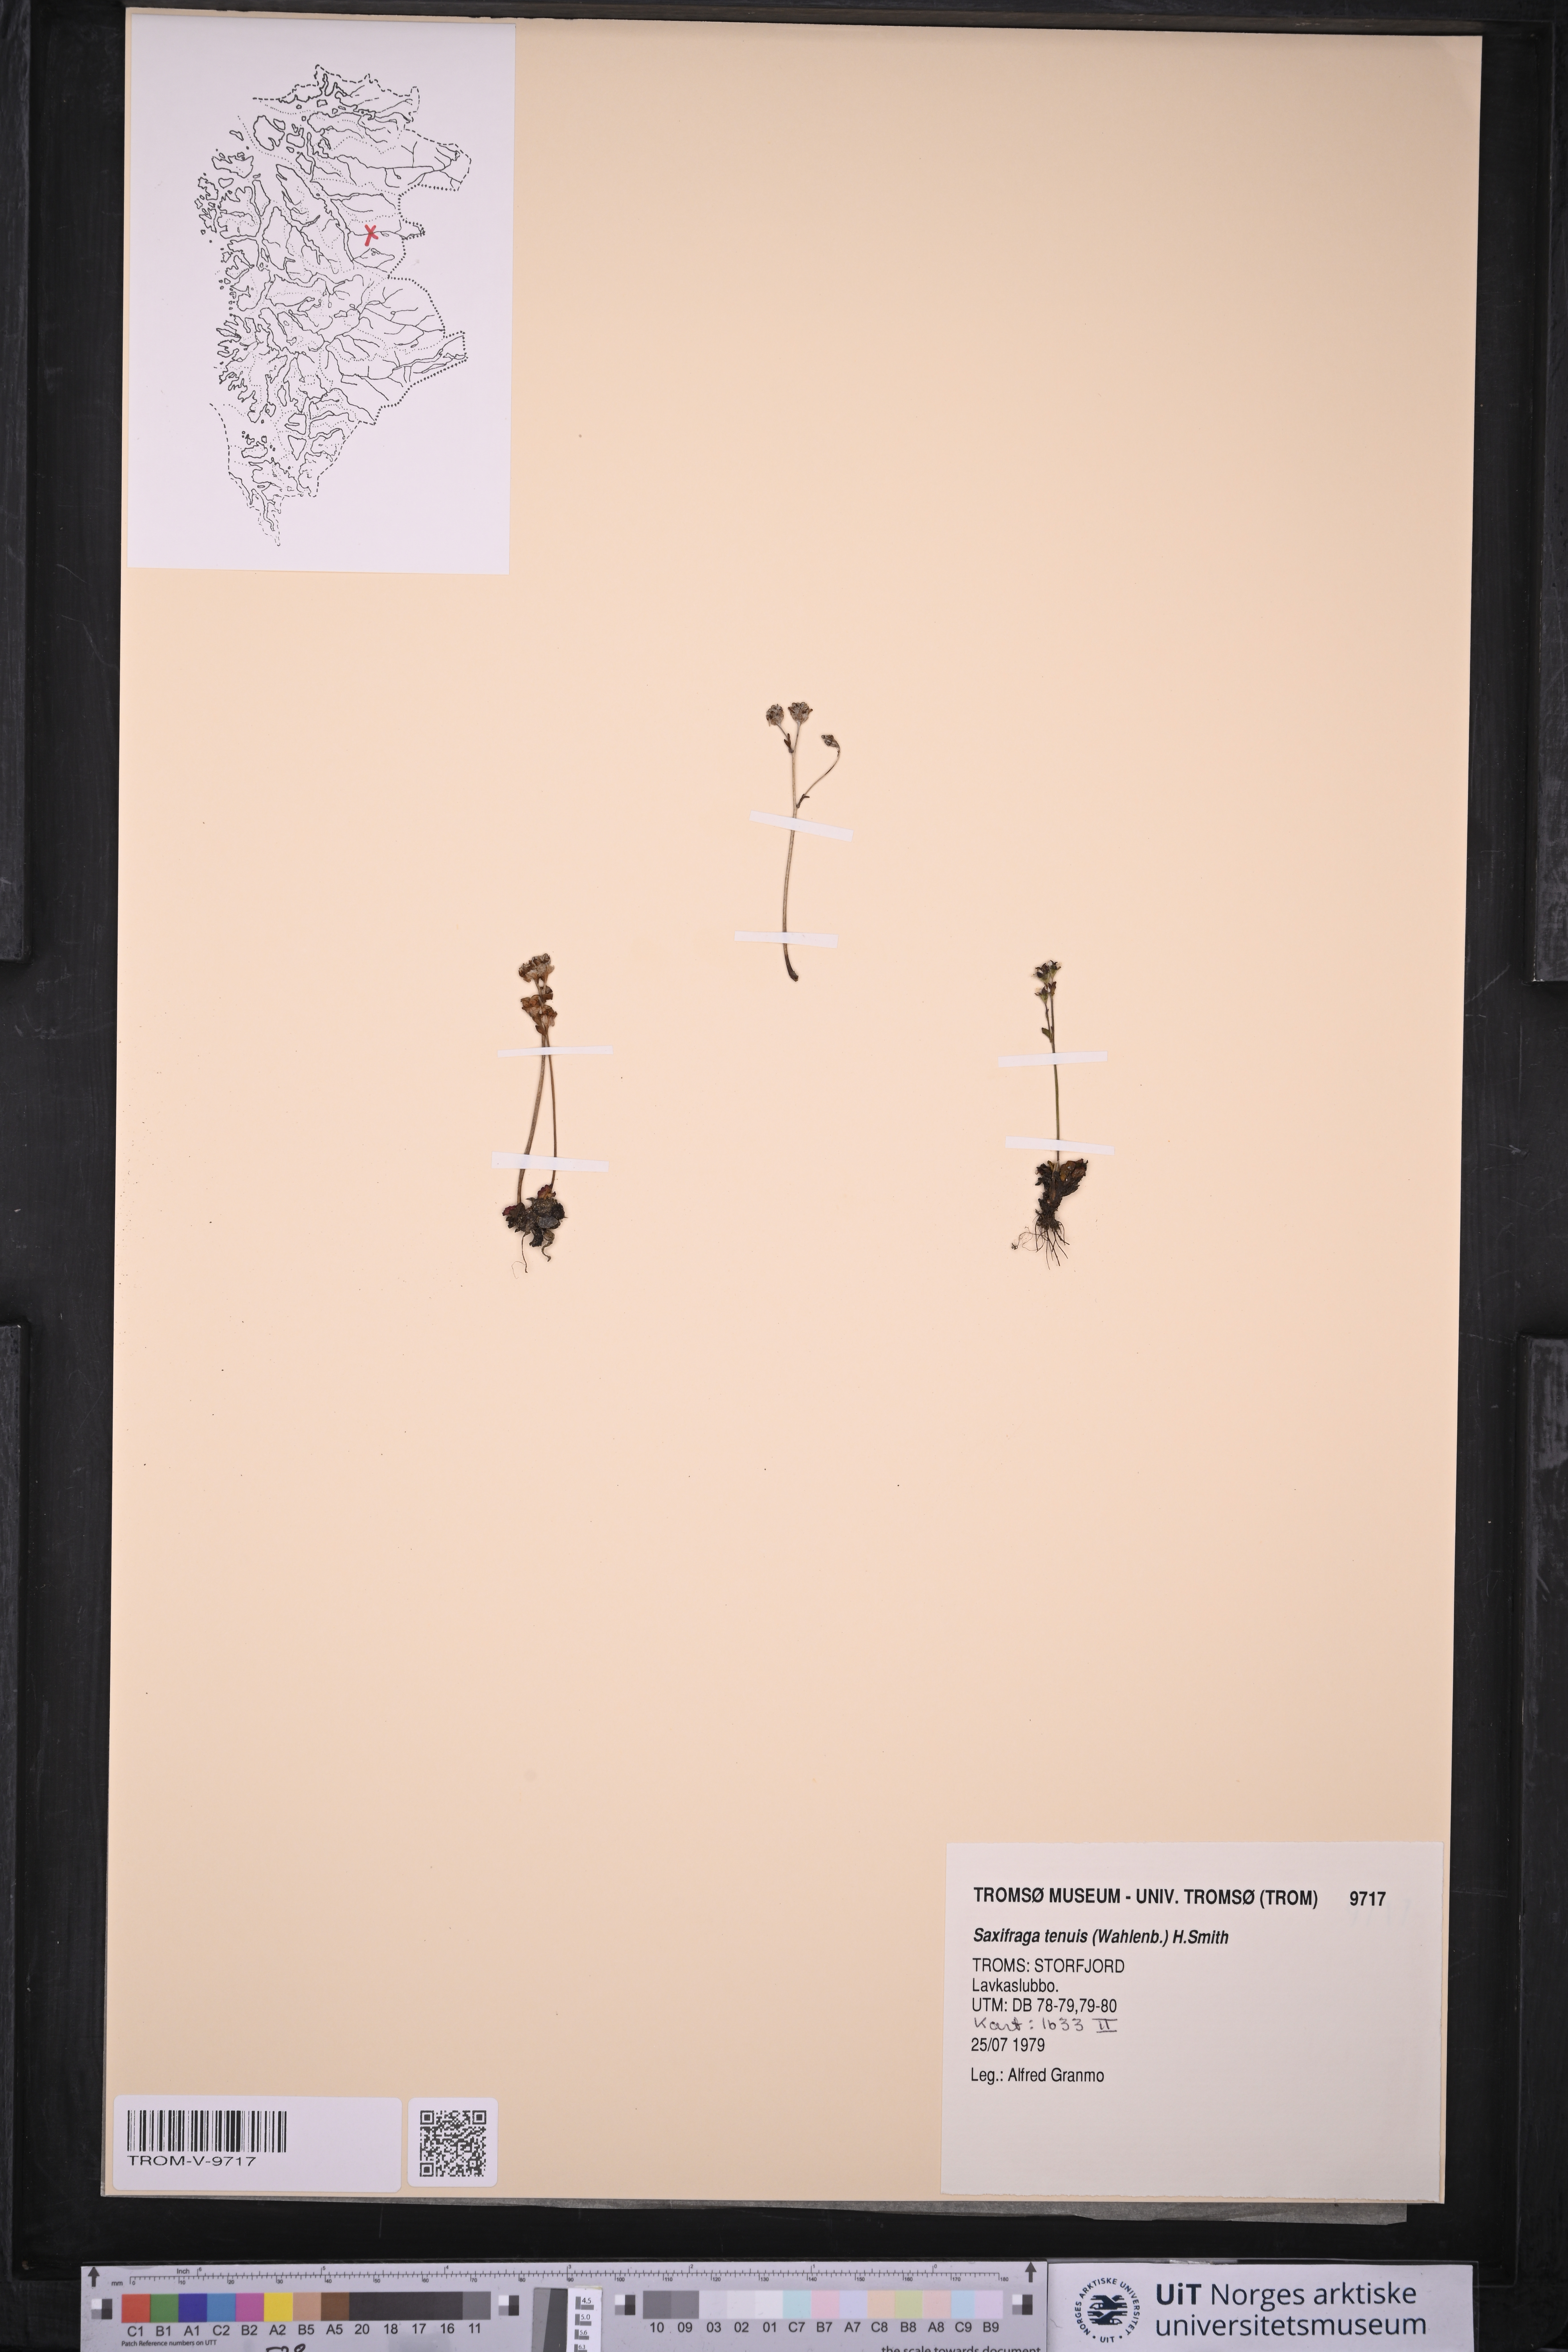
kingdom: Plantae
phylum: Tracheophyta
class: Magnoliopsida
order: Saxifragales
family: Saxifragaceae
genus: Micranthes
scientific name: Micranthes tenuis
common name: Ottertail pass saxifrage
